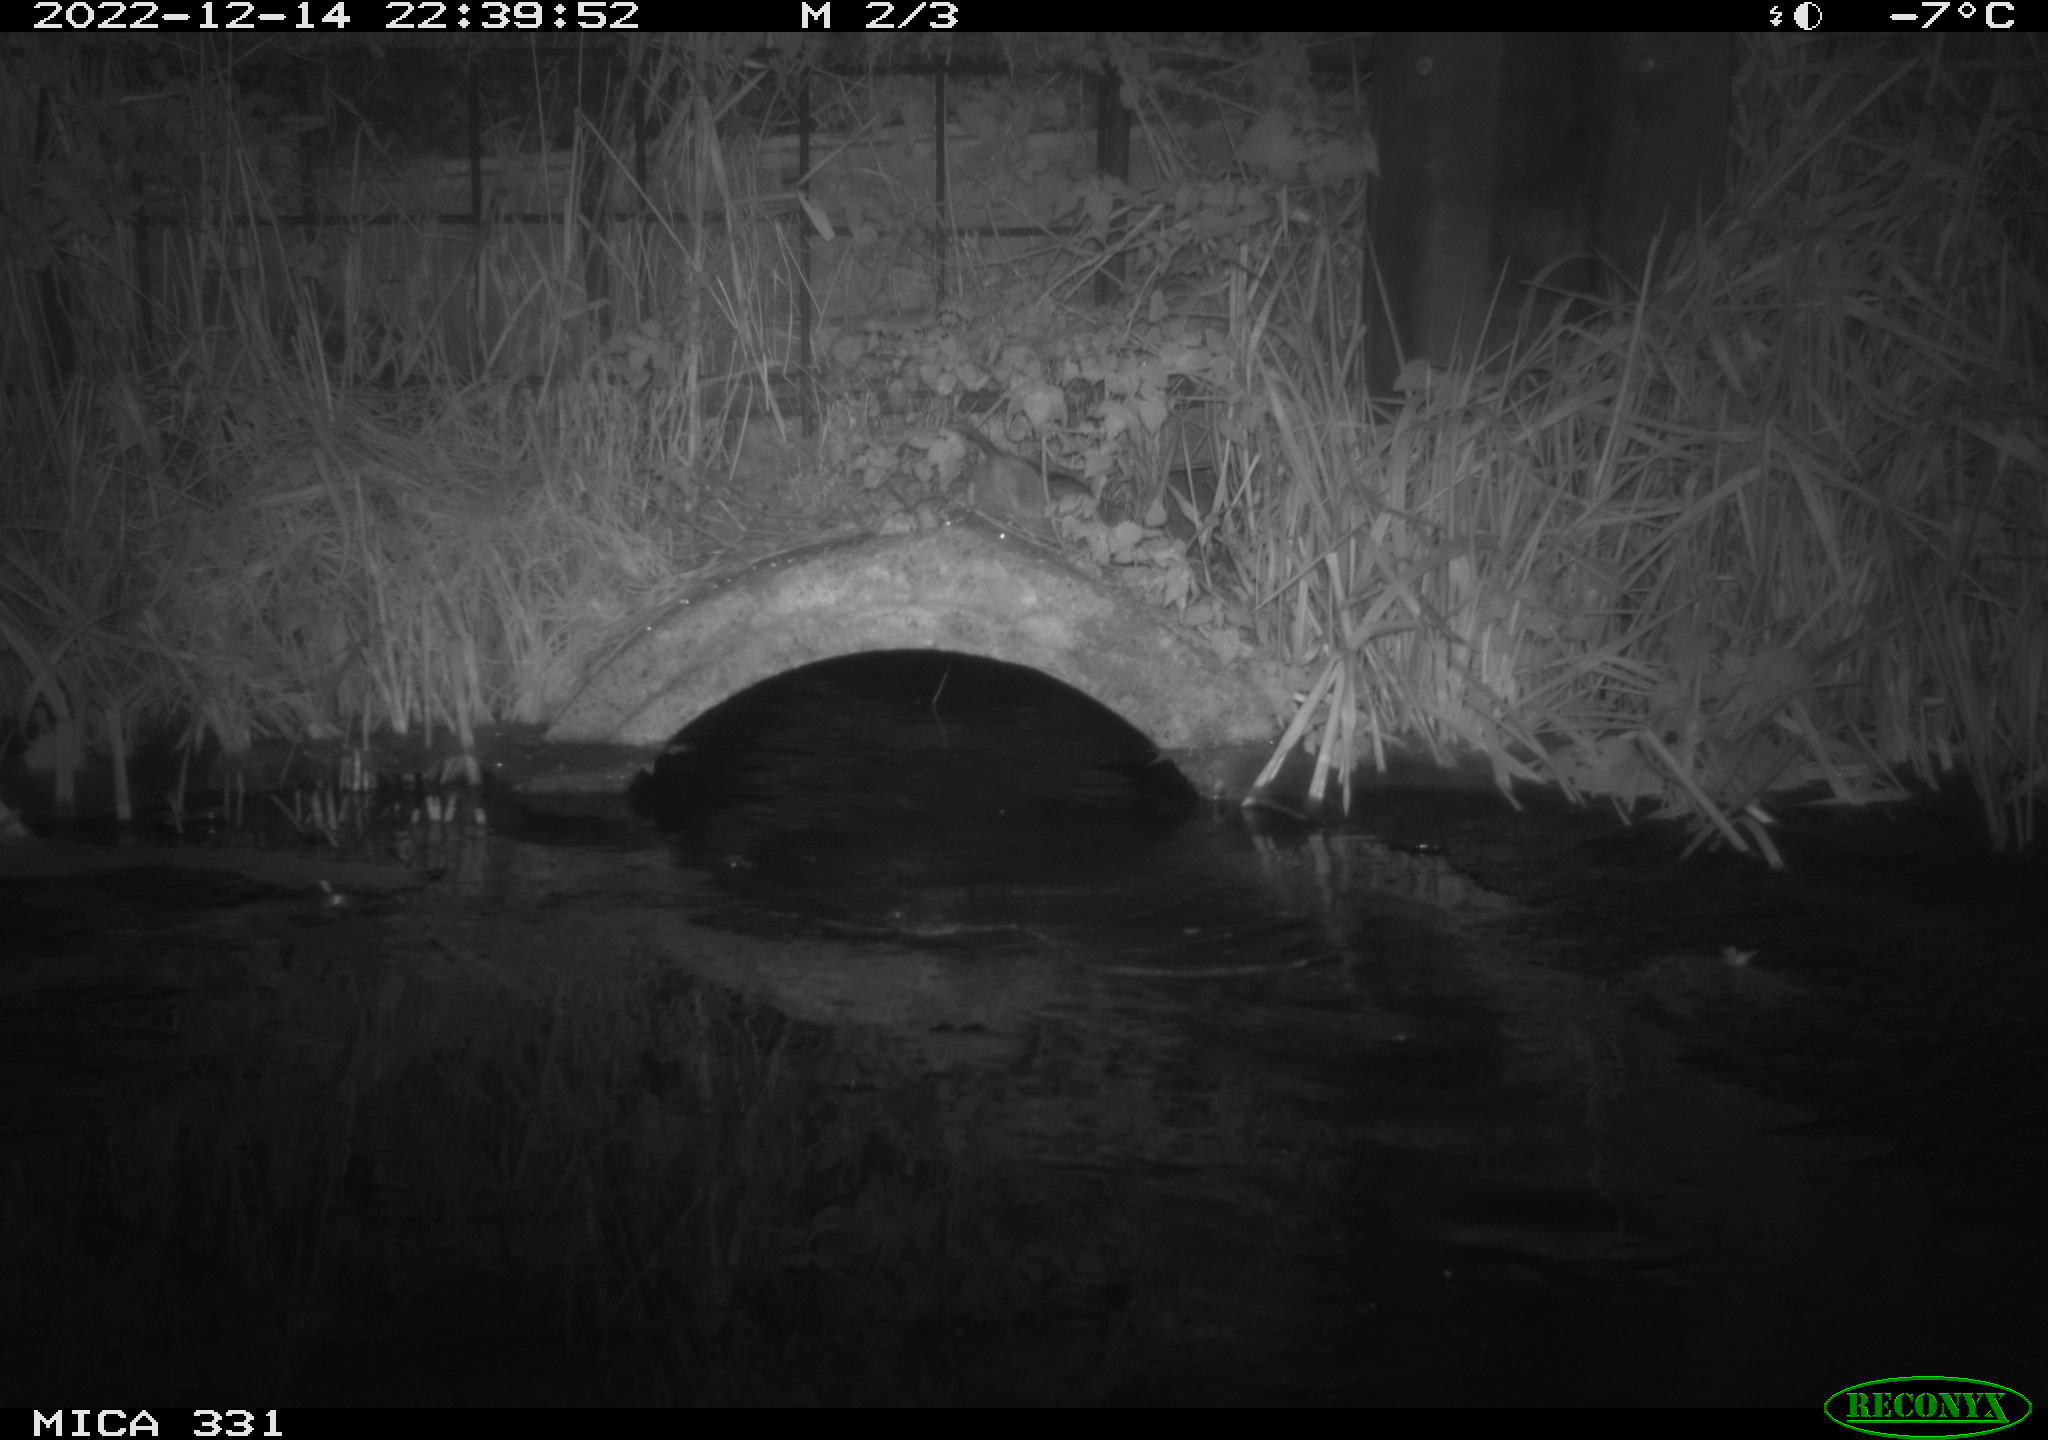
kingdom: Animalia
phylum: Chordata
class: Mammalia
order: Rodentia
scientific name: Rodentia
